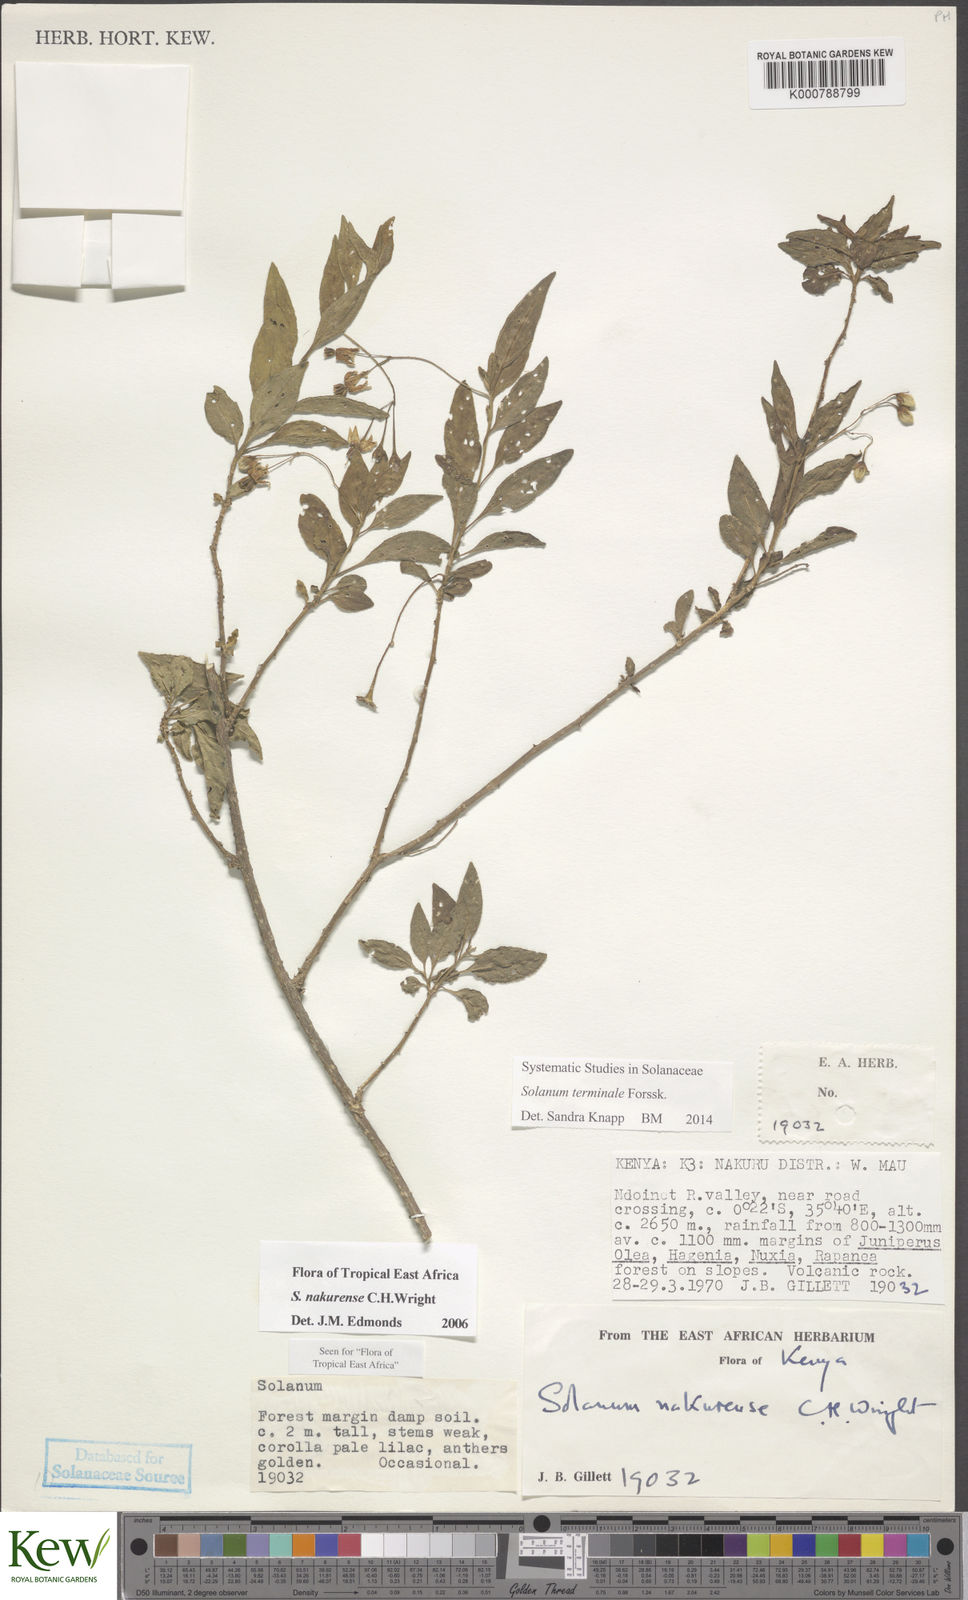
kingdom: Plantae
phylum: Tracheophyta
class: Magnoliopsida
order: Solanales
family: Solanaceae
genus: Solanum
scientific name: Solanum terminale
